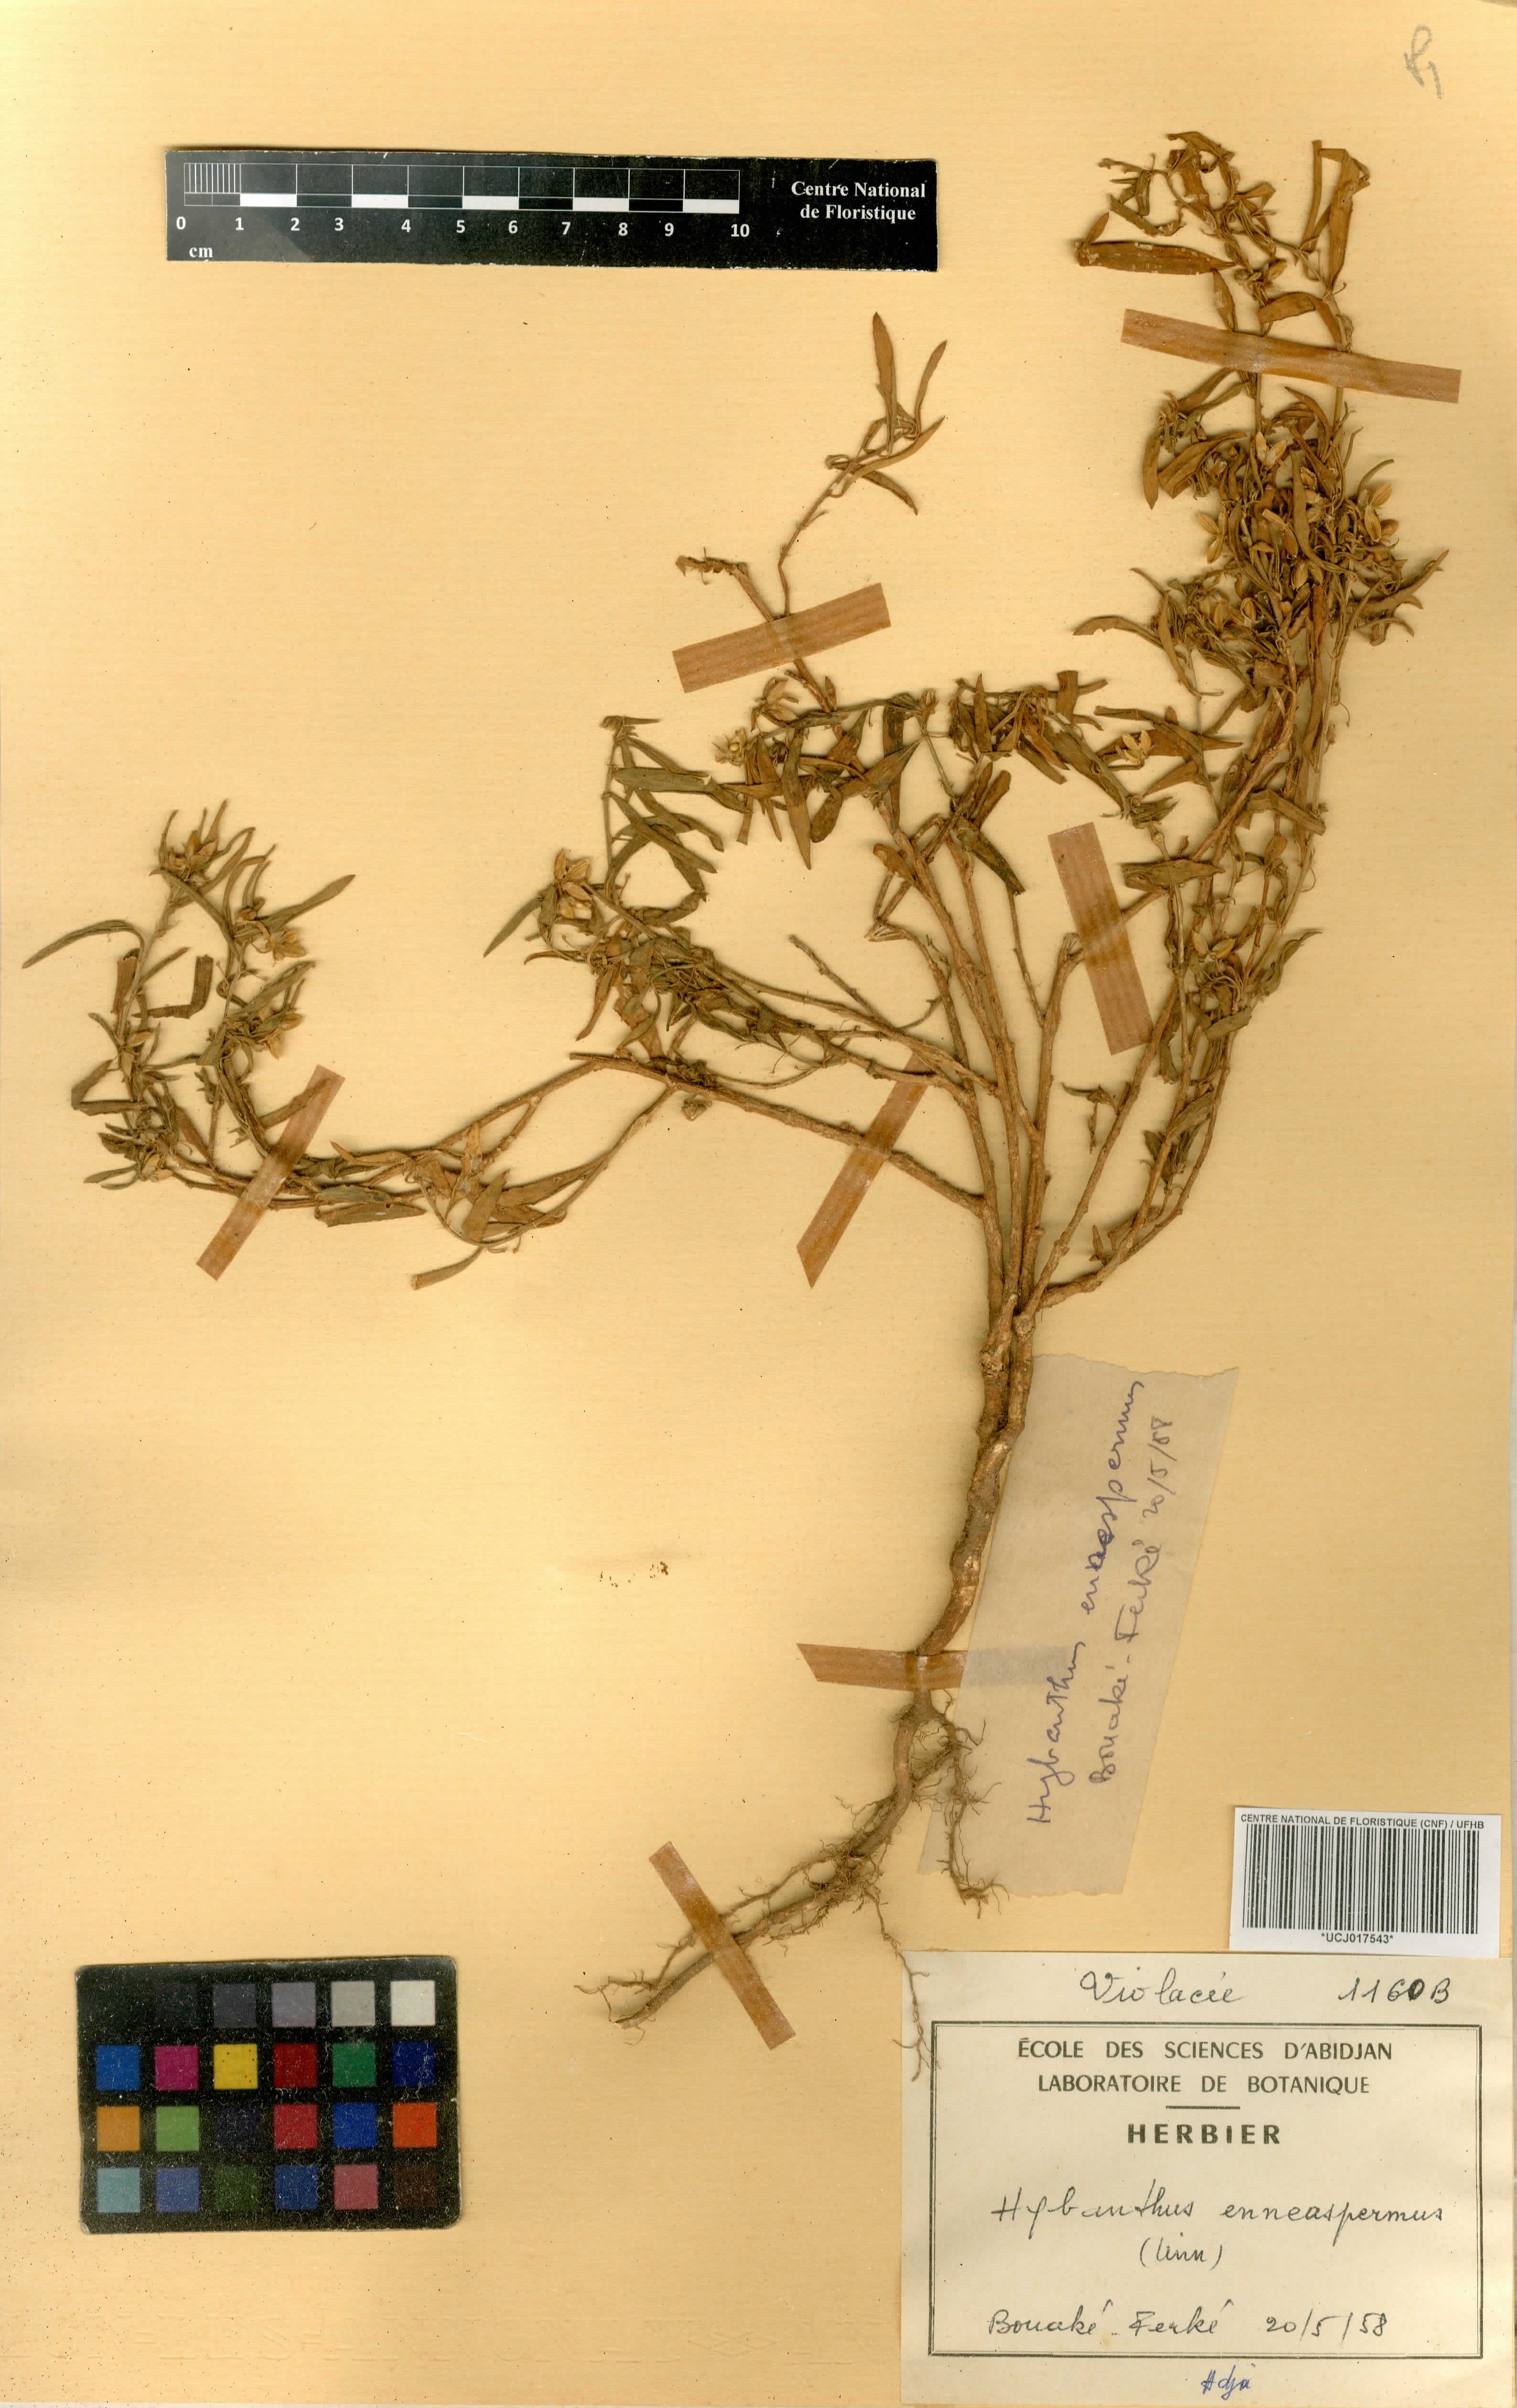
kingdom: Plantae
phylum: Tracheophyta
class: Magnoliopsida
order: Malpighiales
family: Violaceae
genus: Pigea
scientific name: Pigea enneasperma
